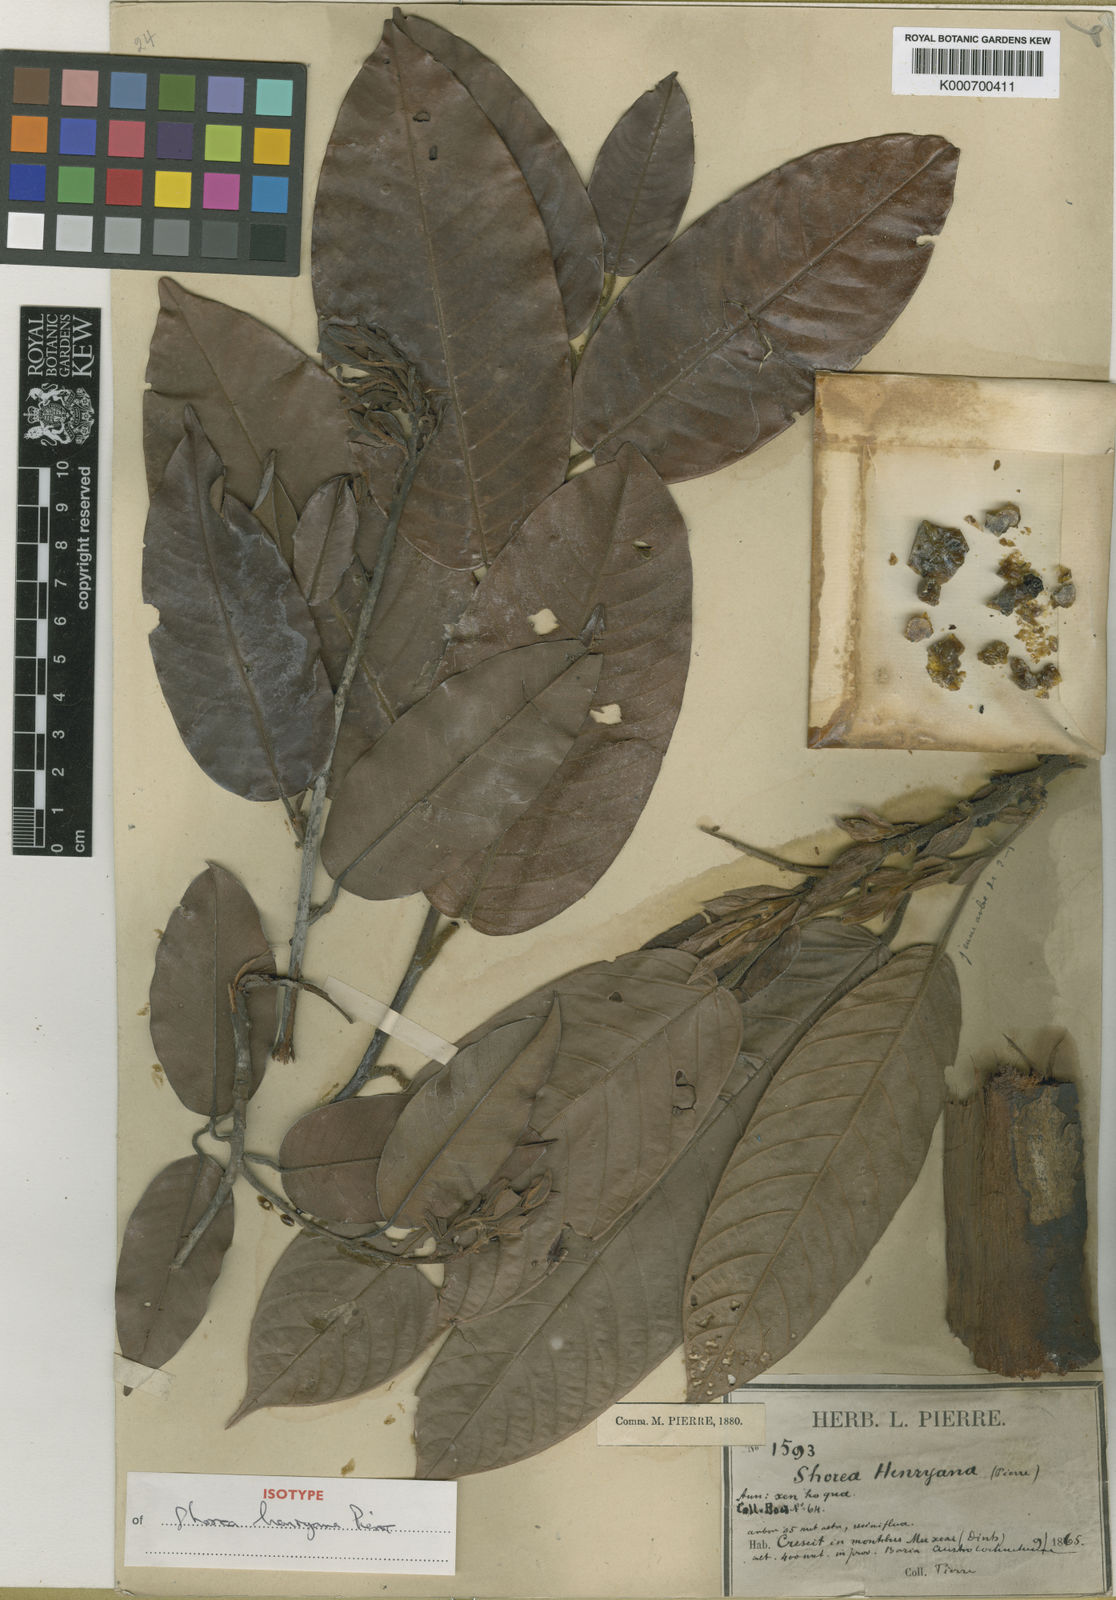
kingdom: Plantae
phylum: Tracheophyta
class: Magnoliopsida
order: Malvales
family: Dipterocarpaceae
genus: Shorea
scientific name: Shorea
